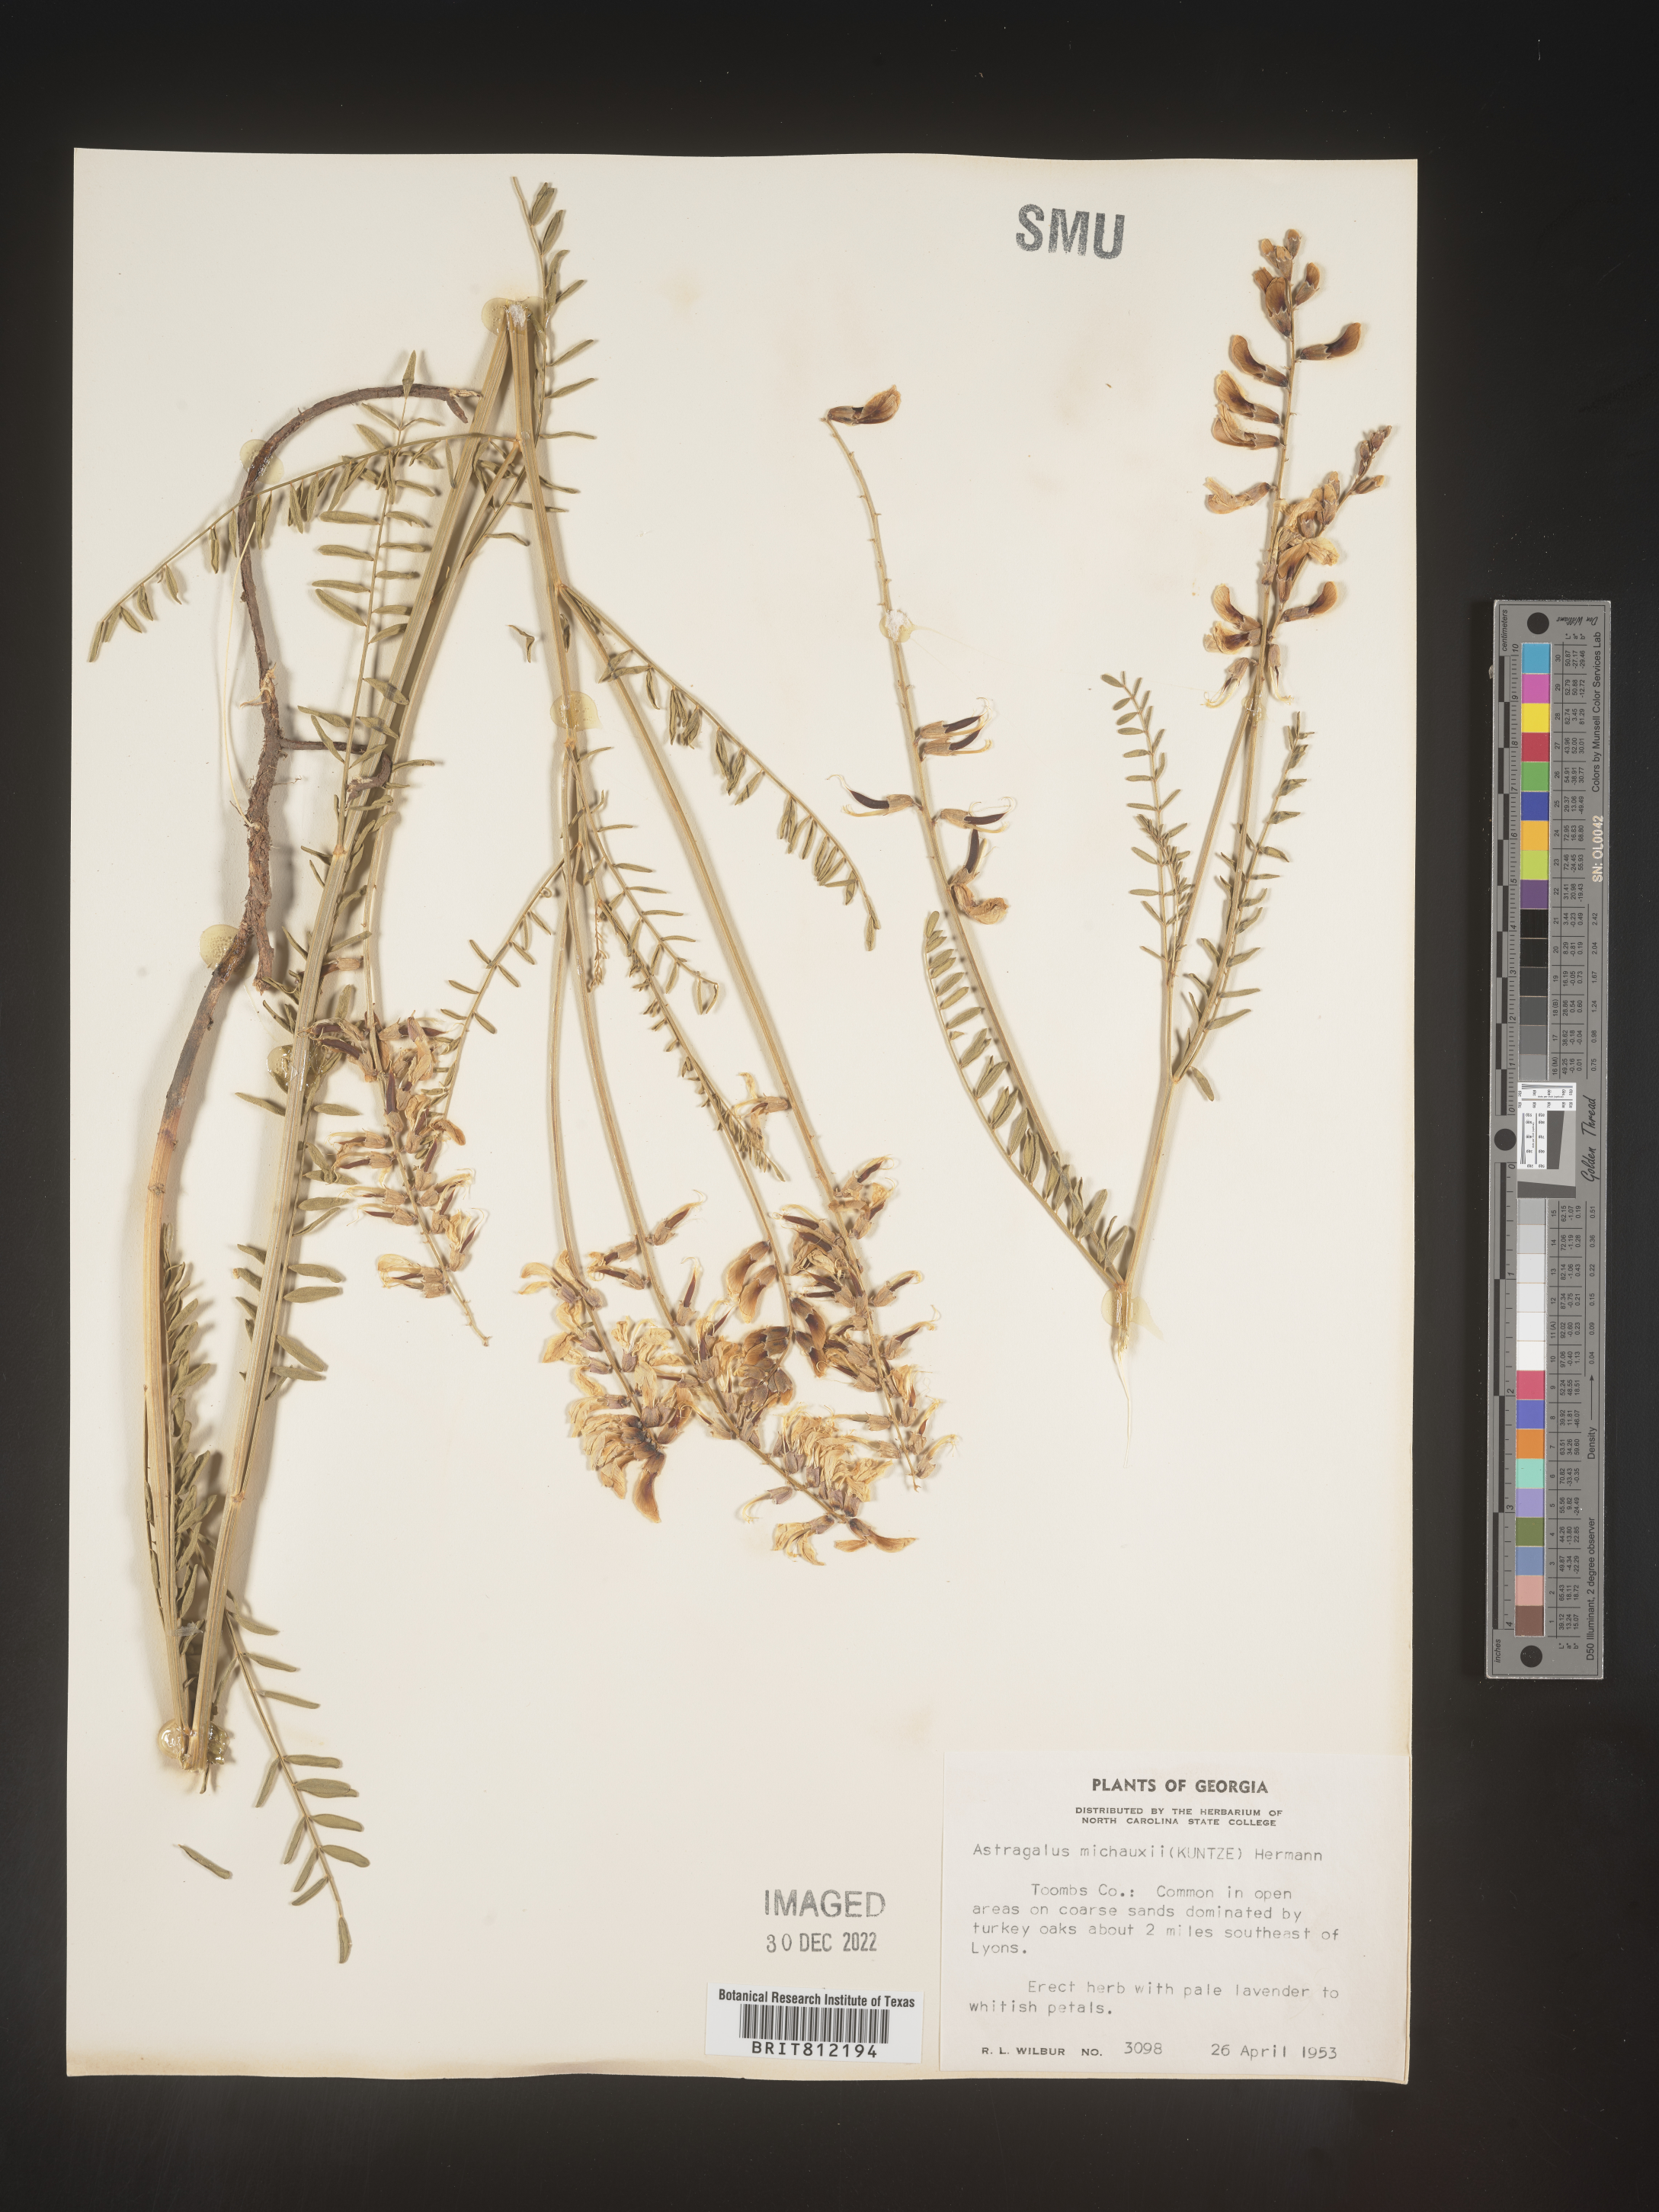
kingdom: Plantae
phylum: Tracheophyta
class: Magnoliopsida
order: Fabales
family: Fabaceae
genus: Astragalus
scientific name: Astragalus michauxii
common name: Michaux milk-vetch
